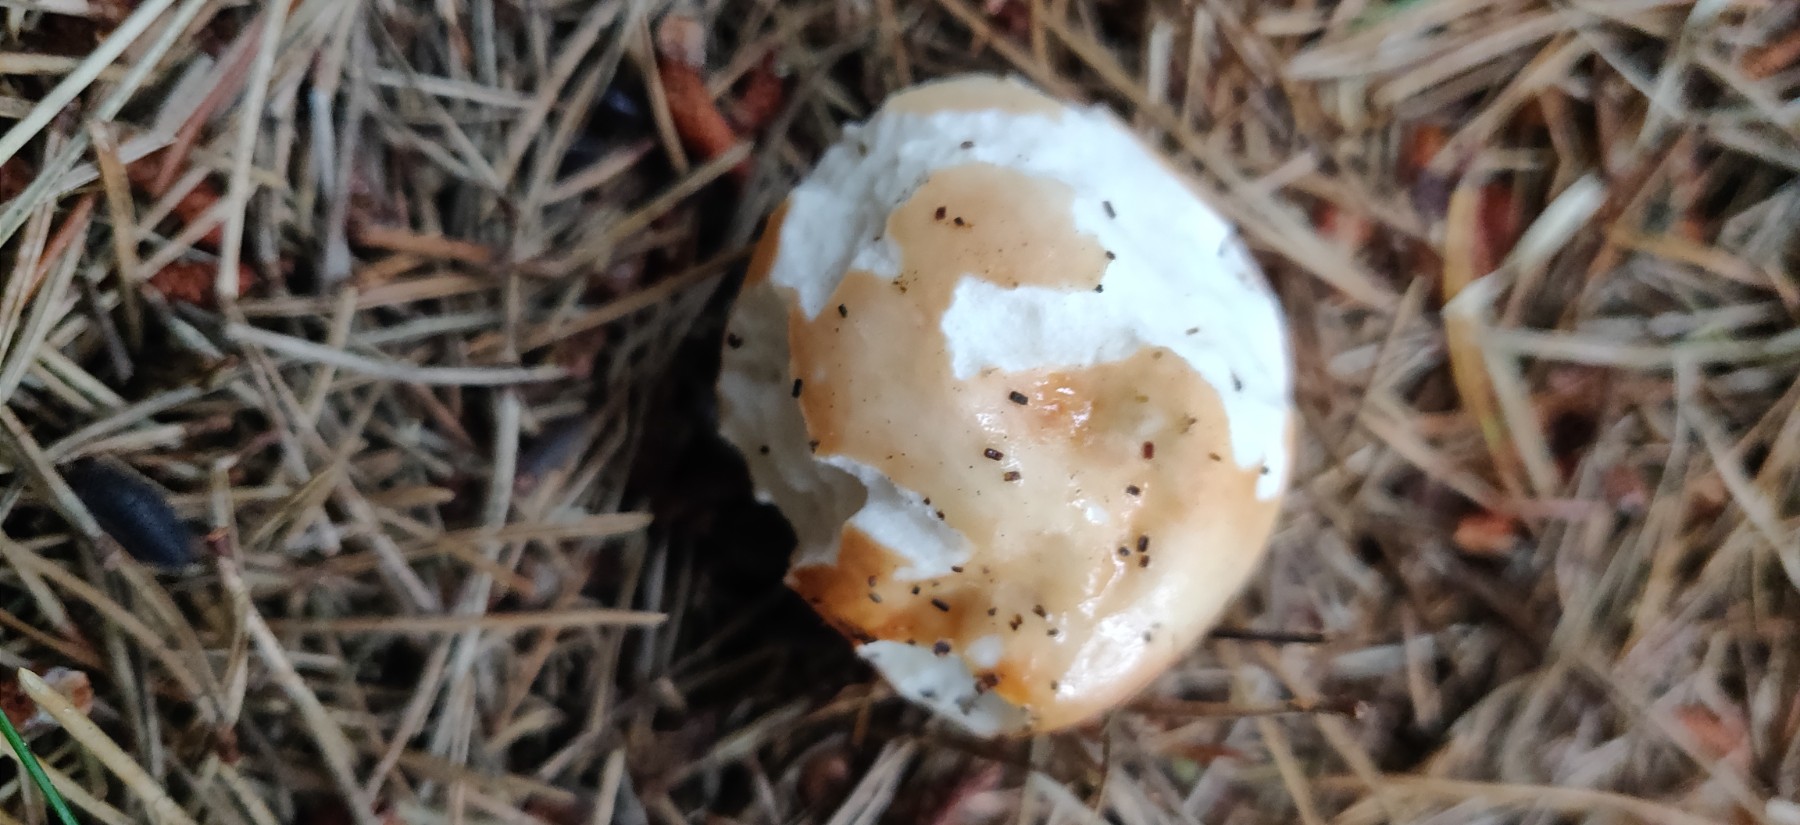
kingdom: Fungi
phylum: Basidiomycota
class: Agaricomycetes
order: Russulales
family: Russulaceae
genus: Russula
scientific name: Russula
